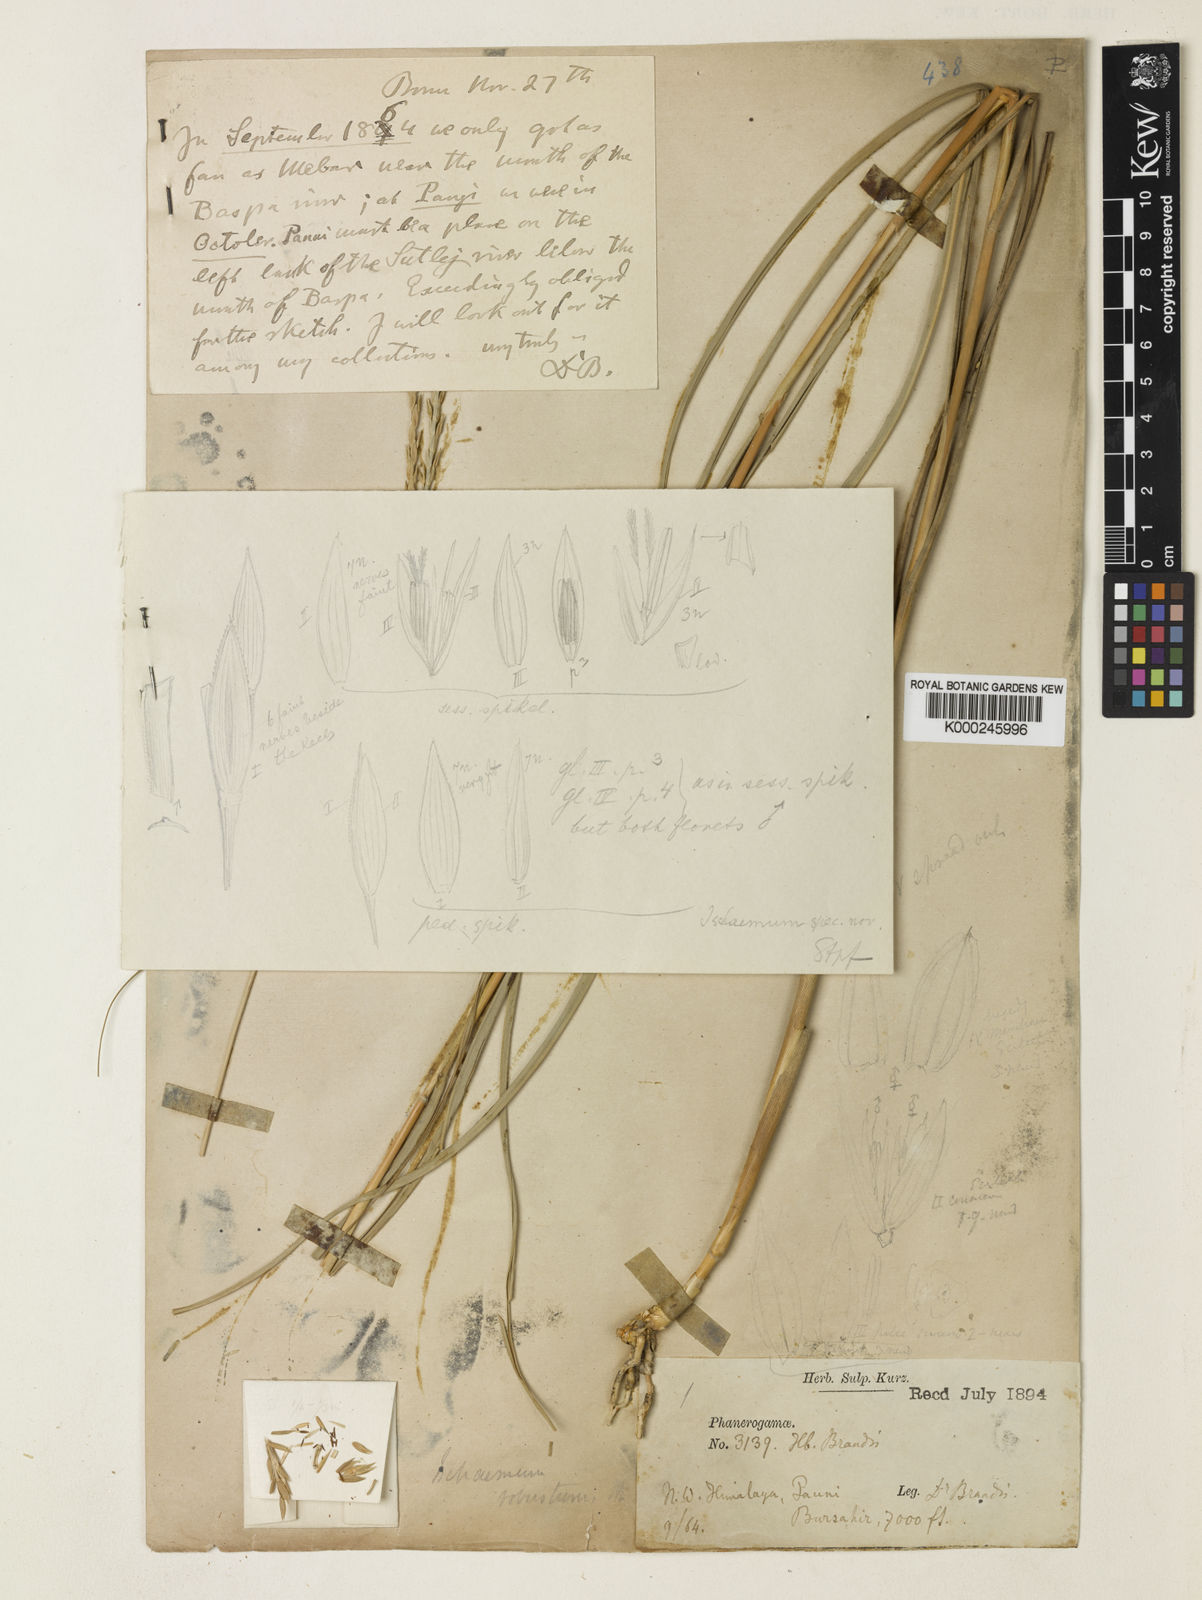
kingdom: Plantae
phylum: Tracheophyta
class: Liliopsida
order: Poales
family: Poaceae
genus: Phacelurus
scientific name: Phacelurus speciosus
